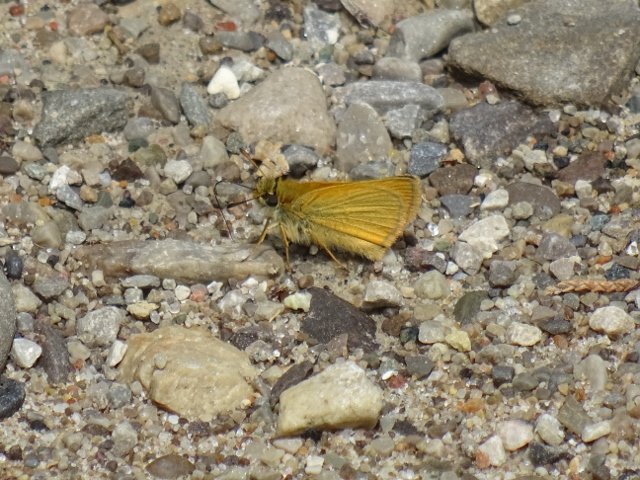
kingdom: Animalia
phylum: Arthropoda
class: Insecta
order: Lepidoptera
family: Hesperiidae
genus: Thymelicus
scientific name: Thymelicus lineola
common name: European Skipper
